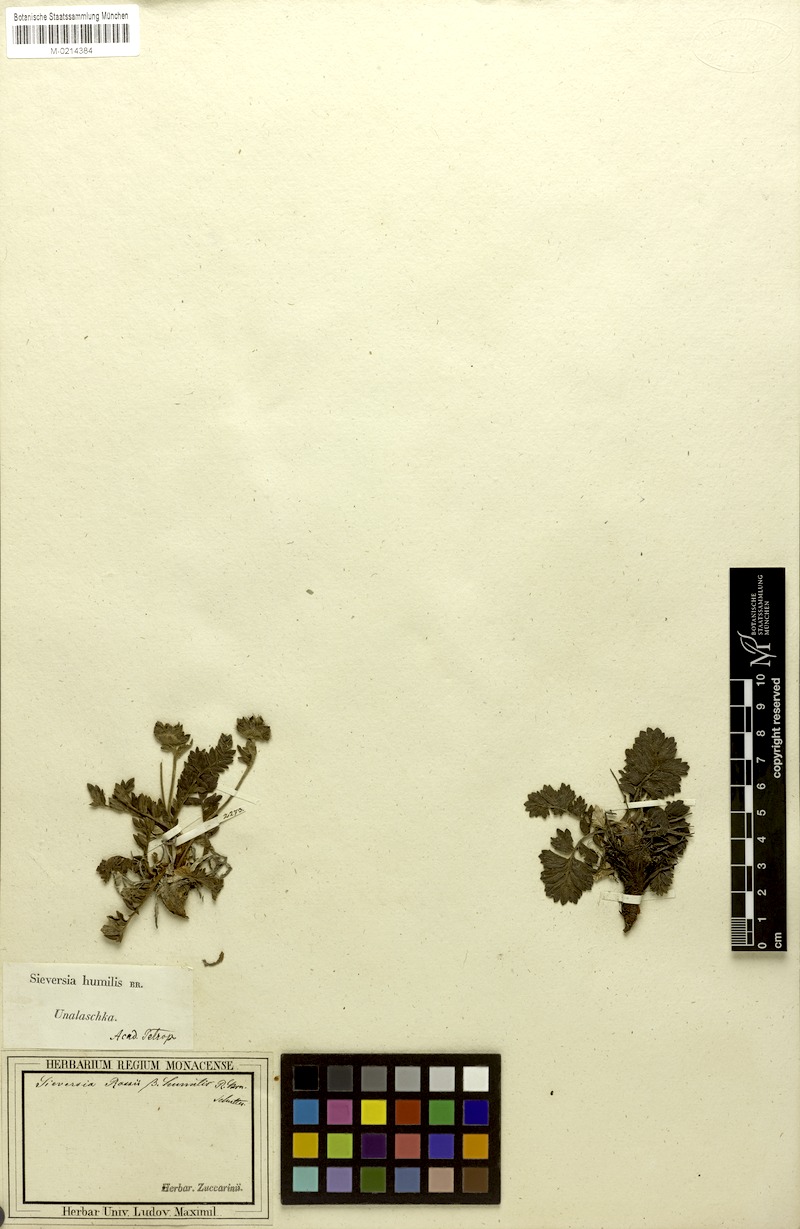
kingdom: Plantae
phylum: Tracheophyta
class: Magnoliopsida
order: Rosales
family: Rosaceae
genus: Geum
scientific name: Geum
